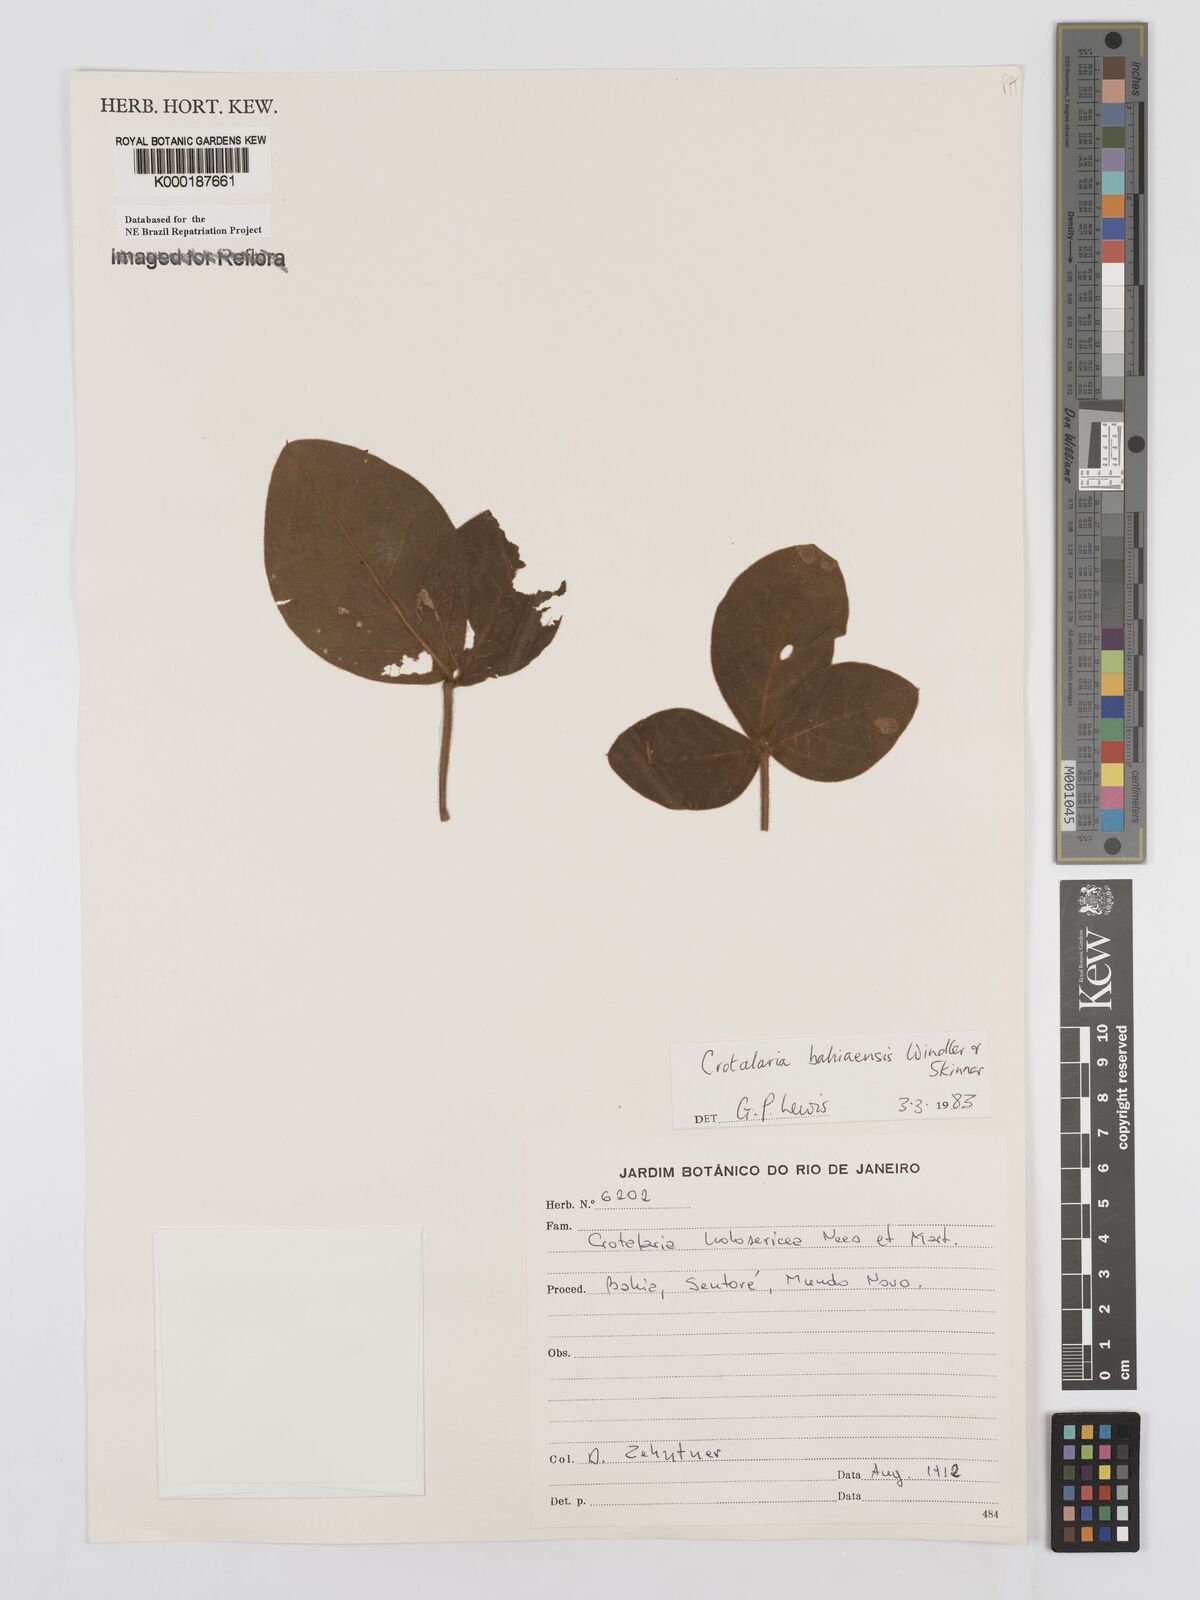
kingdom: Plantae
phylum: Tracheophyta
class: Magnoliopsida
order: Fabales
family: Fabaceae
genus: Crotalaria
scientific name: Crotalaria
